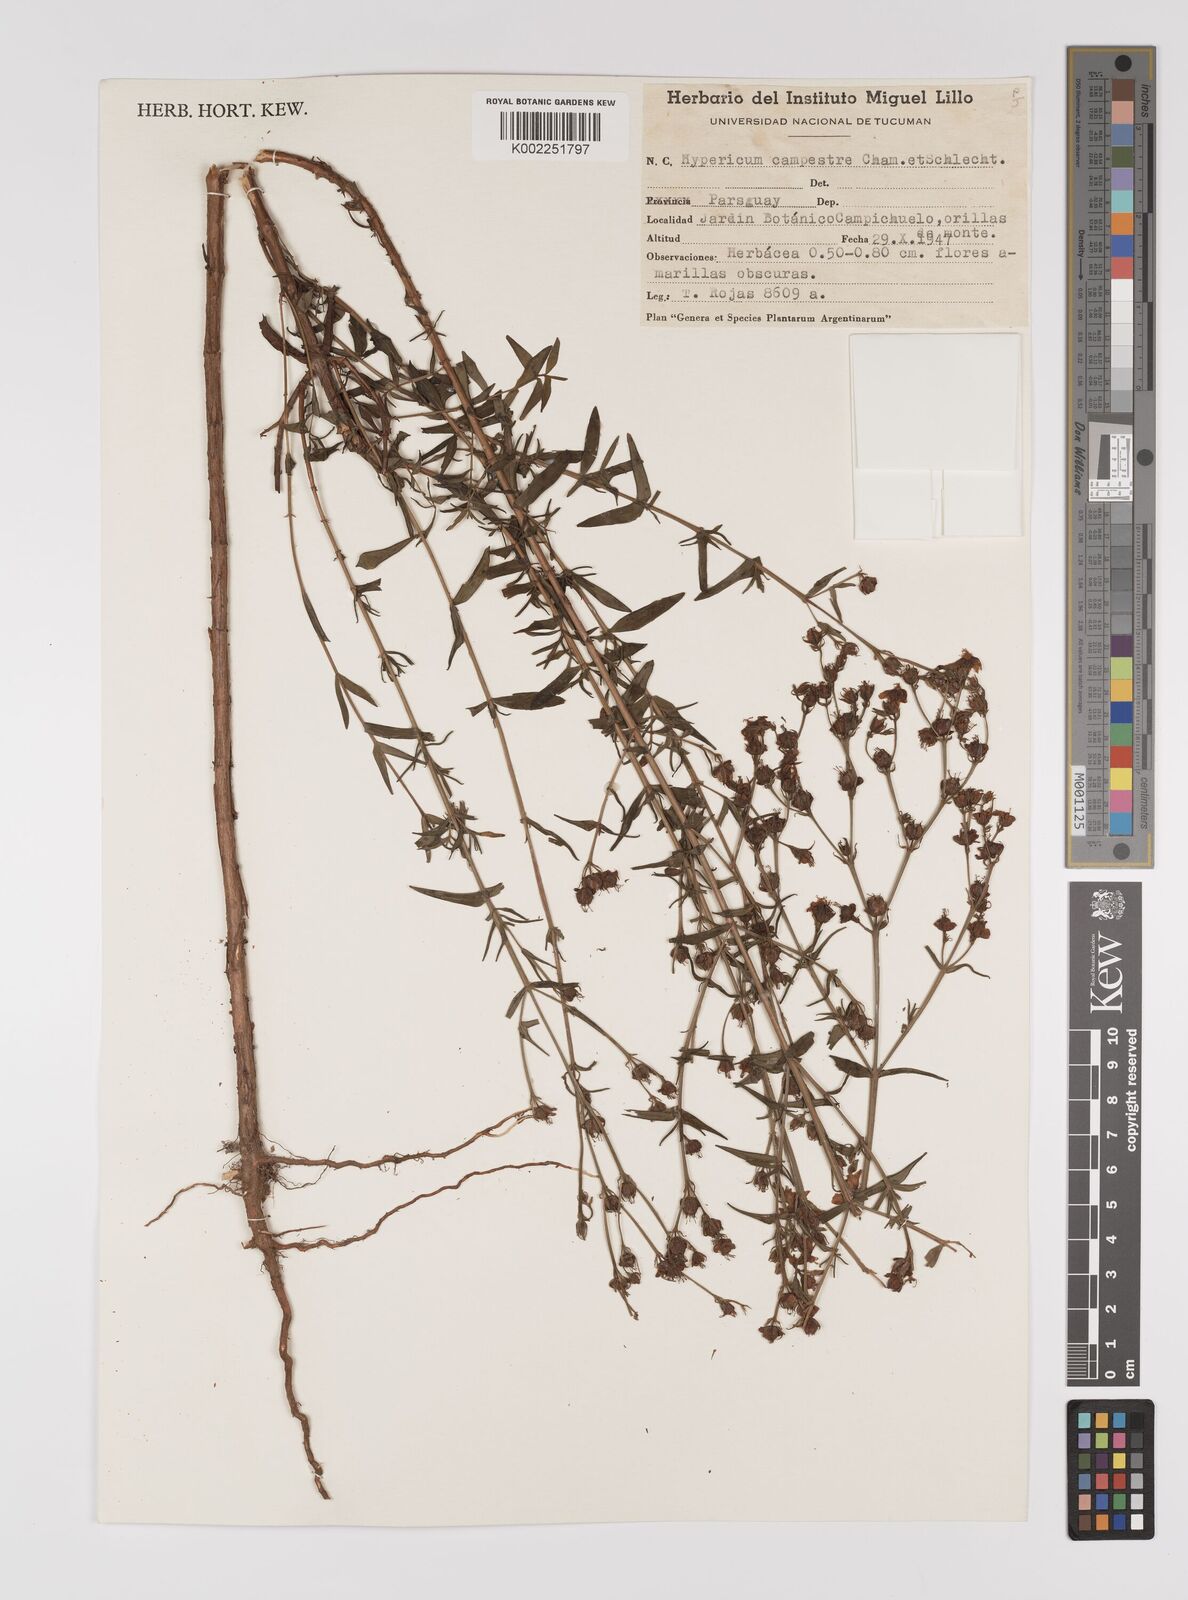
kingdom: Plantae
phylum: Tracheophyta
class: Magnoliopsida
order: Malpighiales
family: Hypericaceae
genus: Hypericum
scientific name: Hypericum
